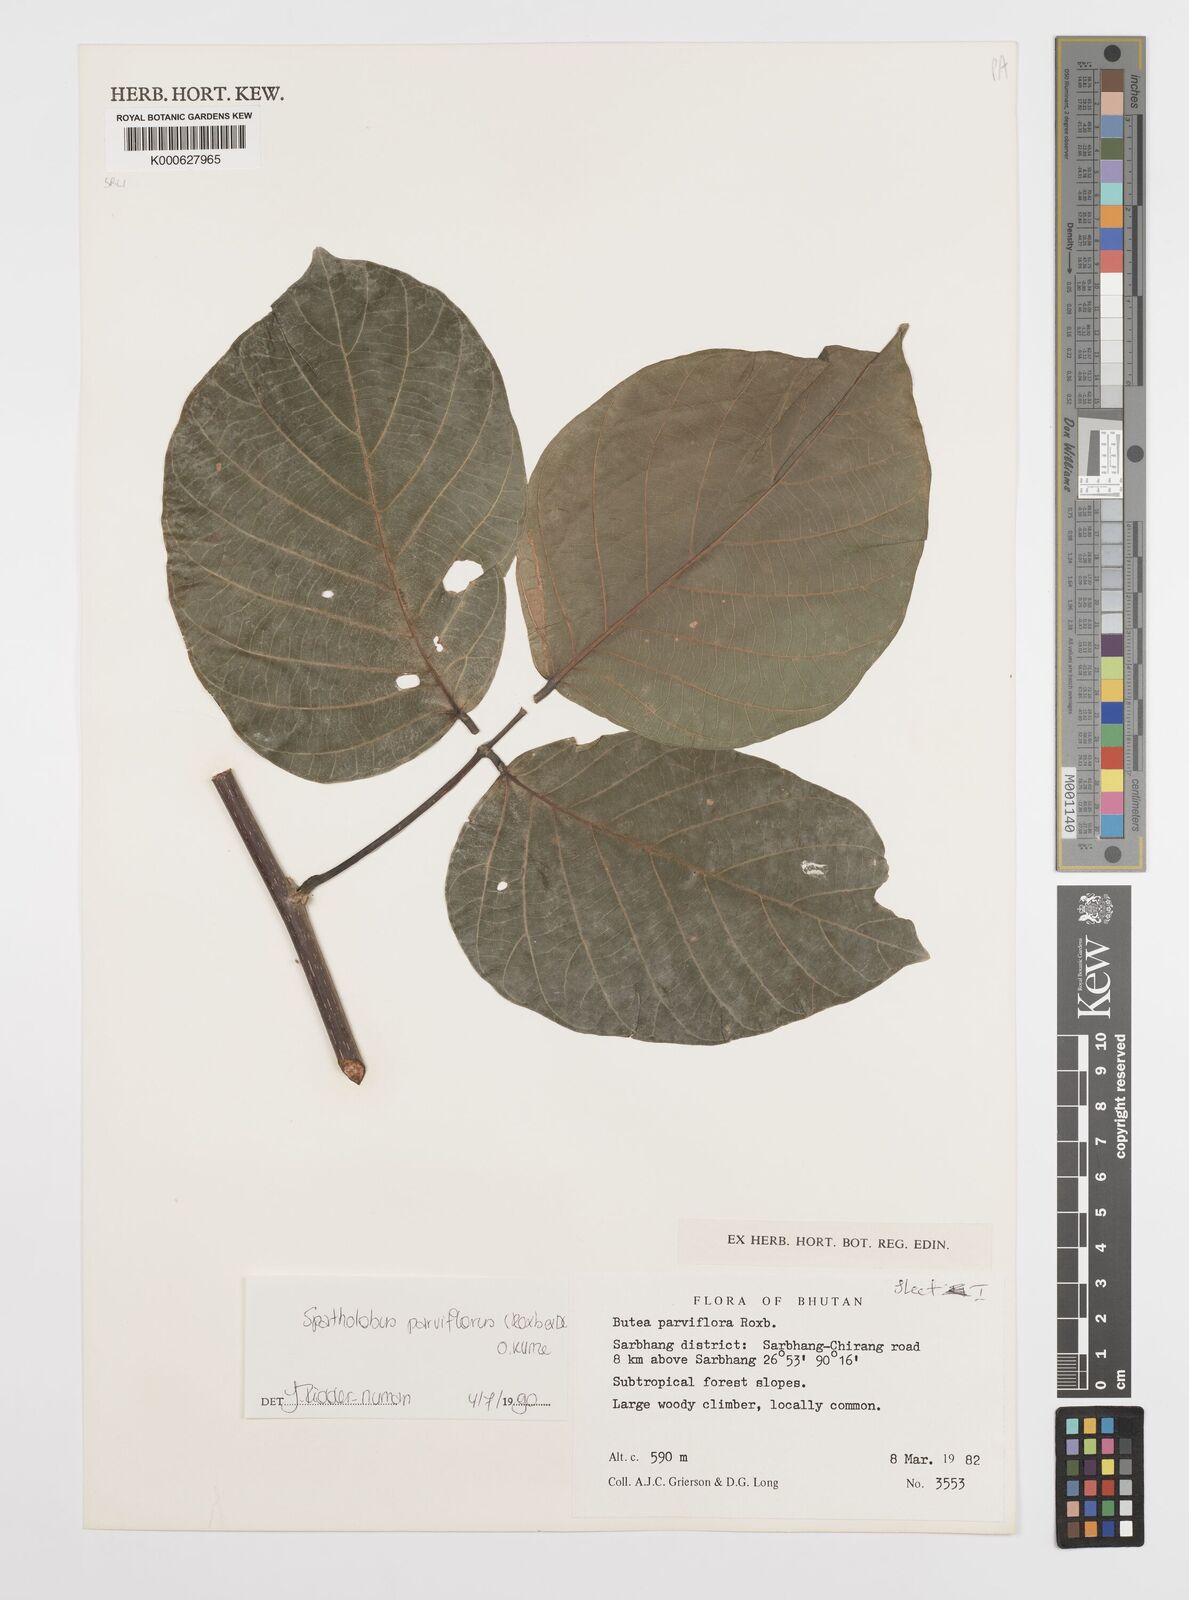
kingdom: Plantae
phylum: Tracheophyta
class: Magnoliopsida
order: Fabales
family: Fabaceae
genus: Spatholobus
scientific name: Spatholobus parviflorus
